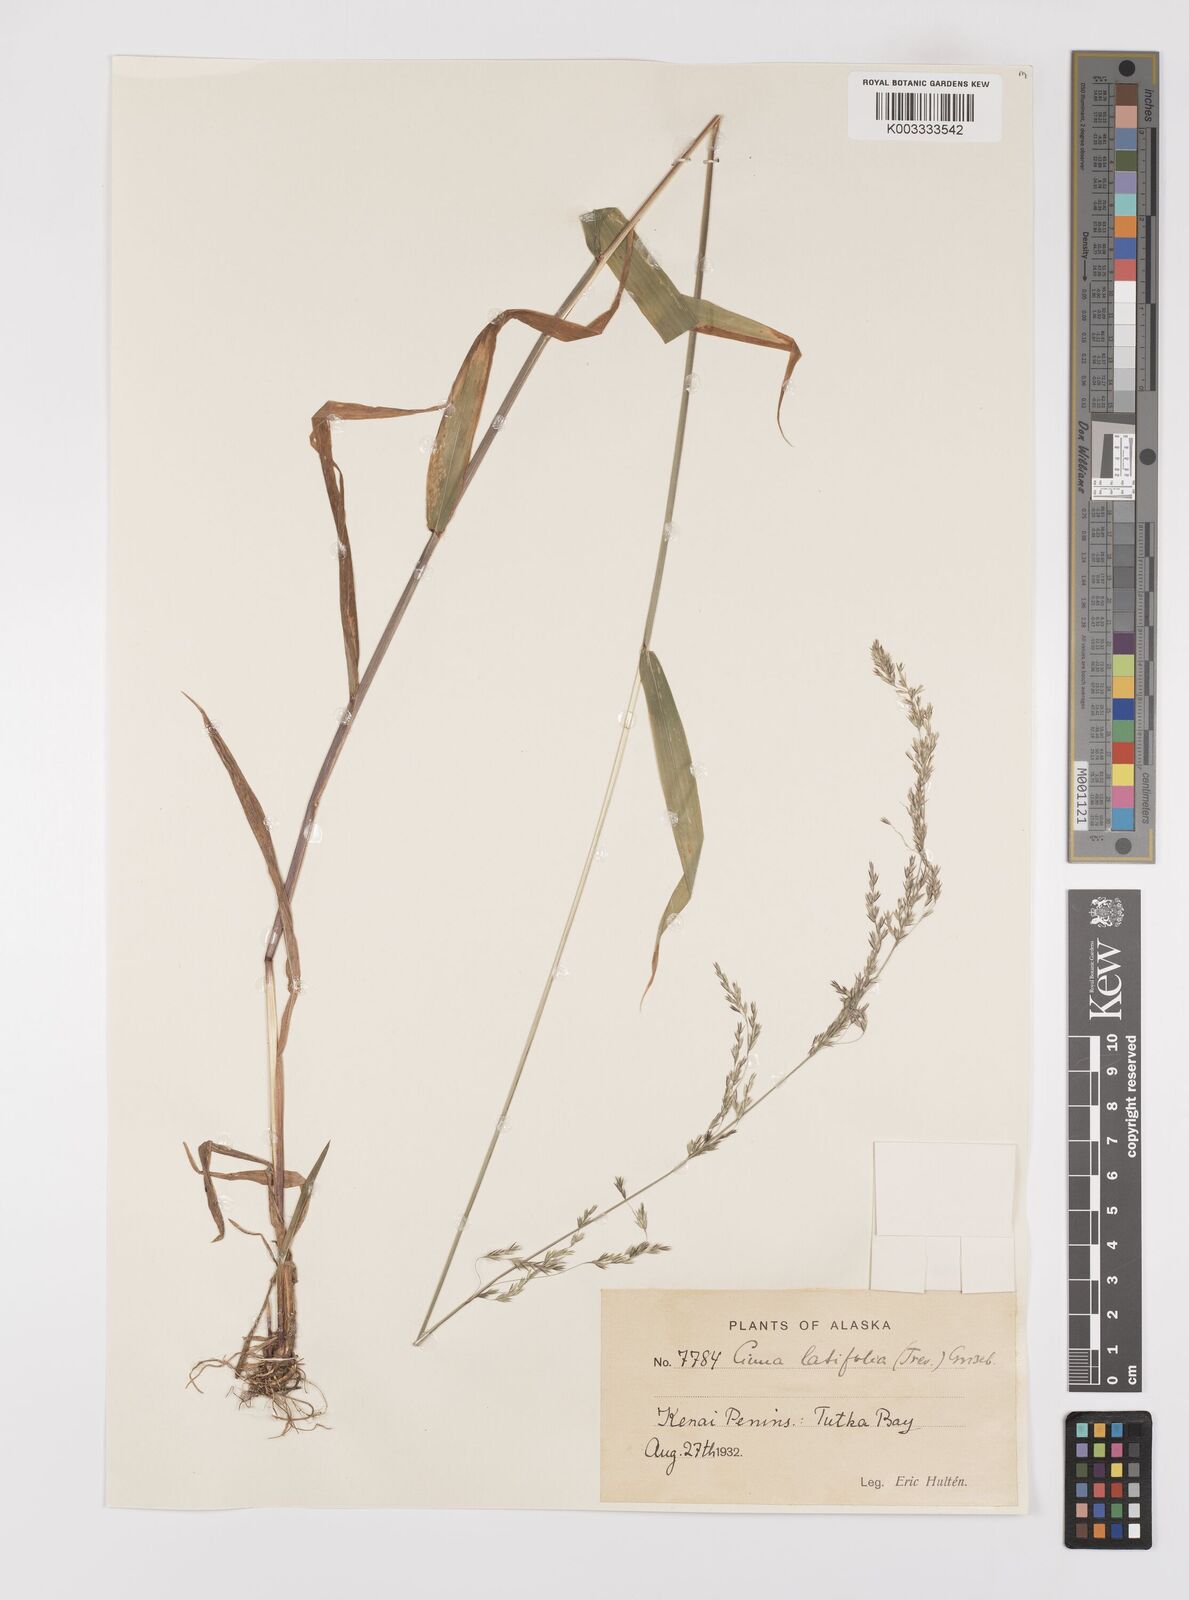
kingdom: Plantae
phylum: Tracheophyta
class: Liliopsida
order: Poales
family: Poaceae
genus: Cinna
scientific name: Cinna latifolia
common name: Drooping woodreed
